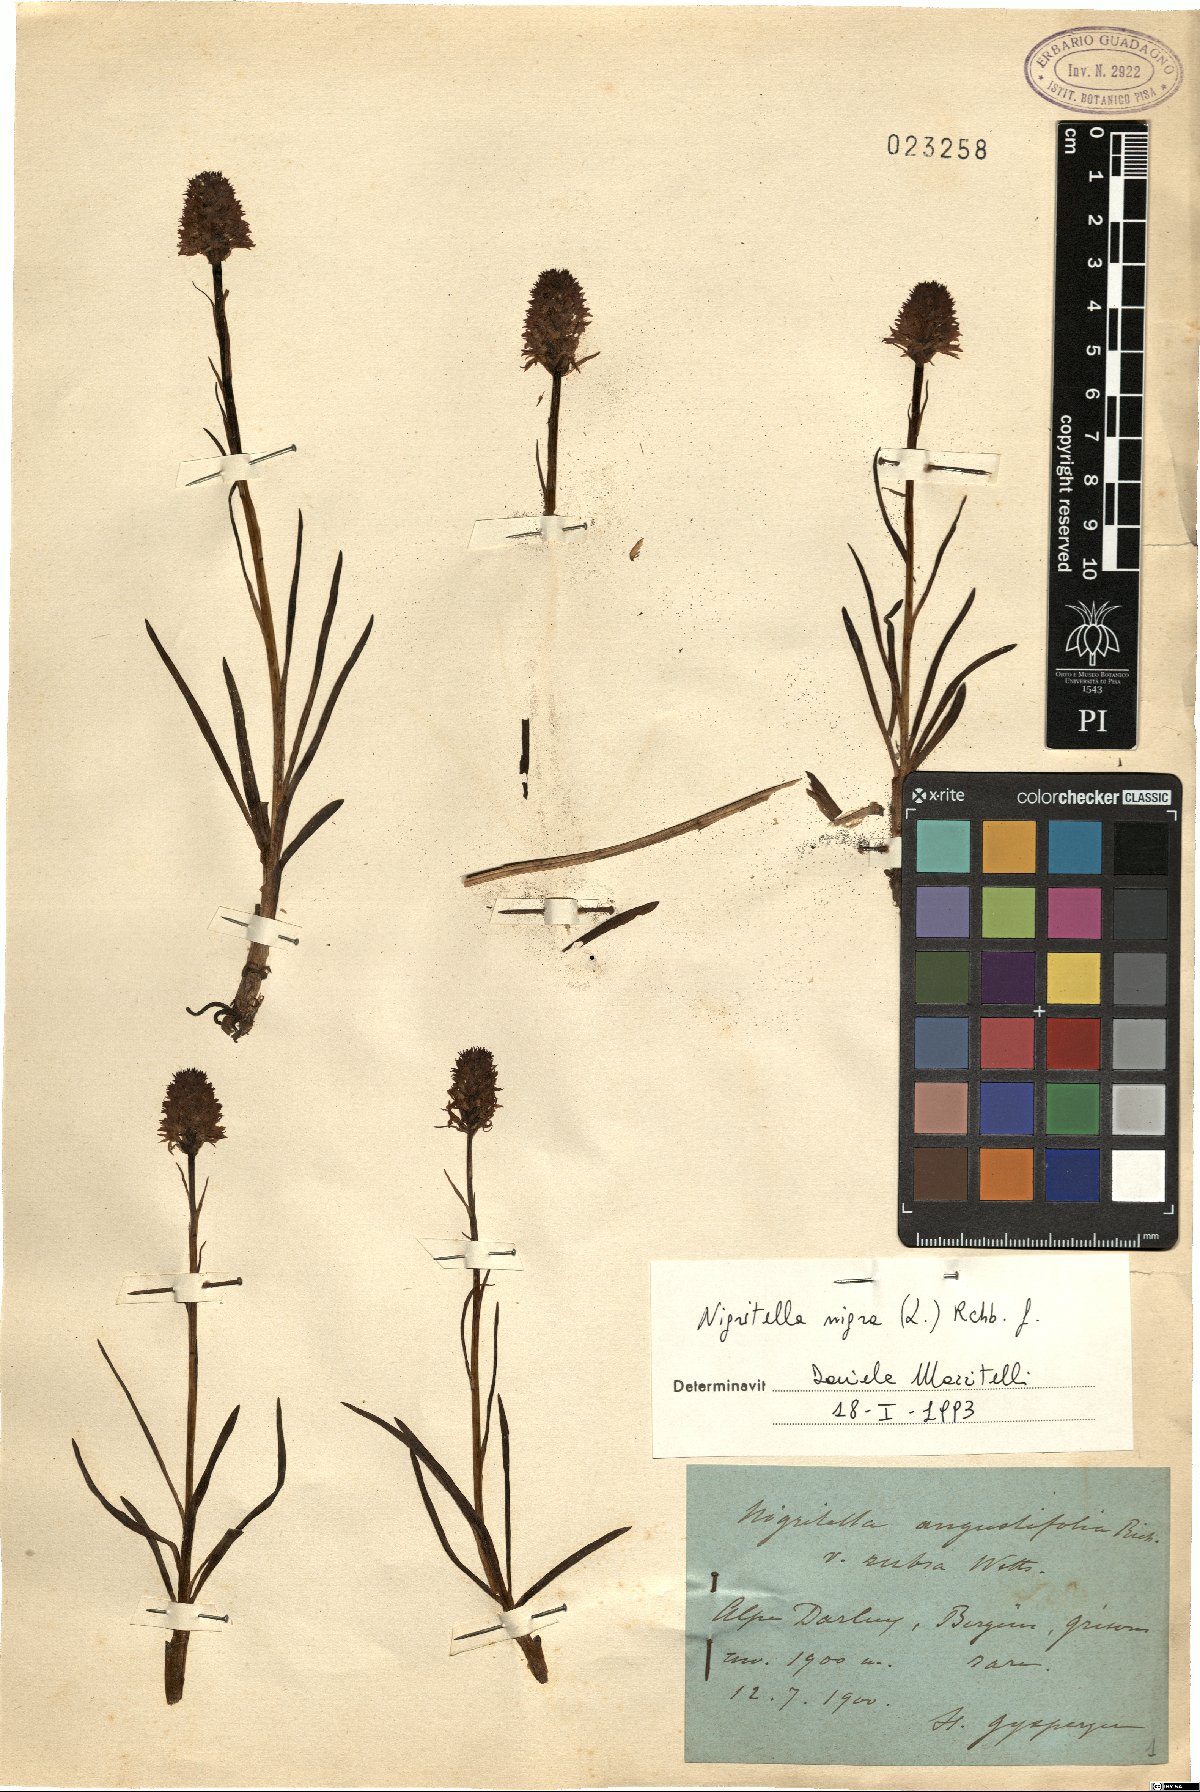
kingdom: Plantae
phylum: Tracheophyta
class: Liliopsida
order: Asparagales
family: Orchidaceae
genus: Gymnadenia
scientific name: Gymnadenia nigra
